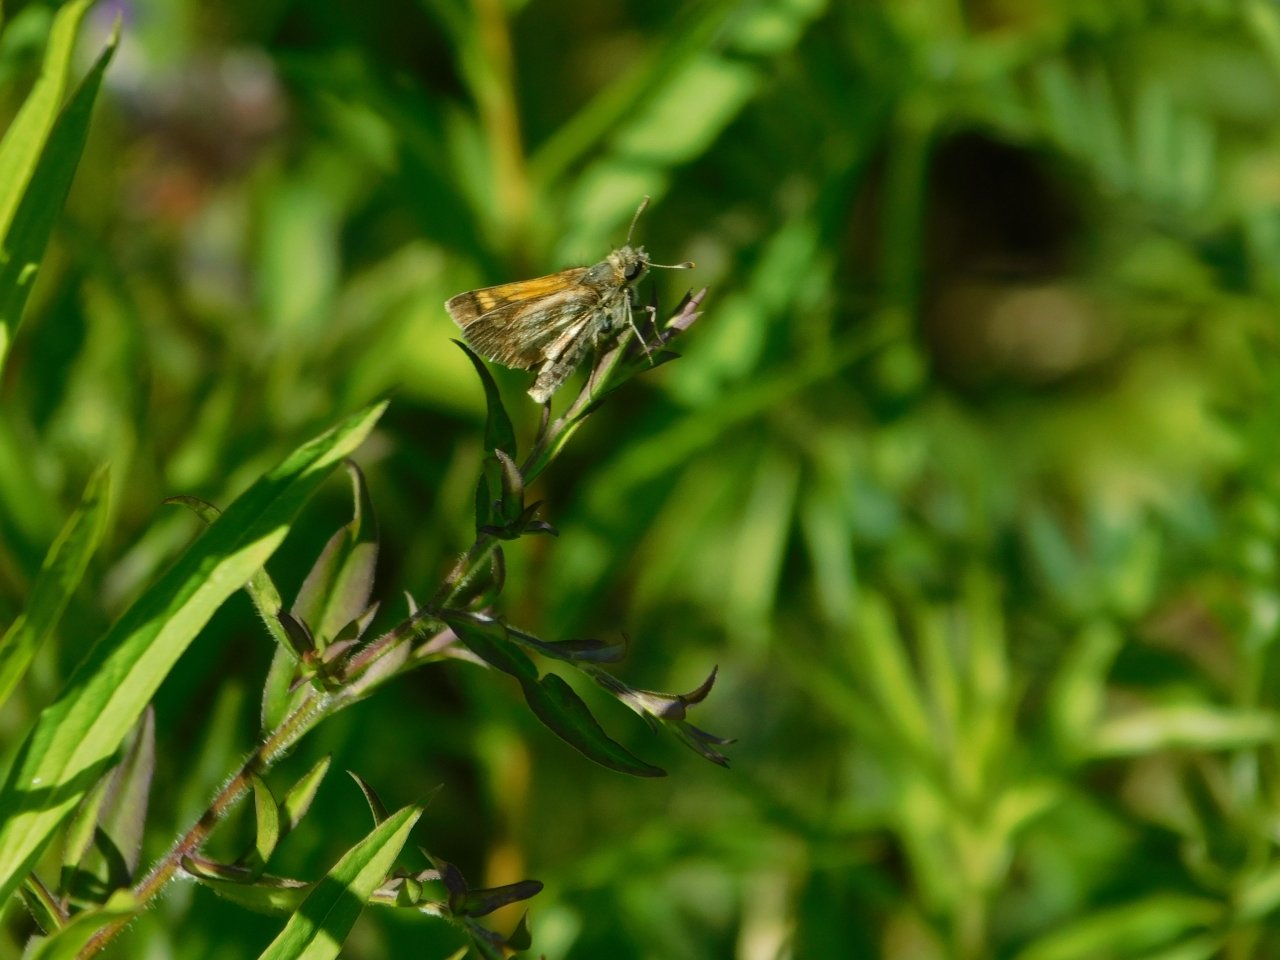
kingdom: Animalia
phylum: Arthropoda
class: Insecta
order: Lepidoptera
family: Hesperiidae
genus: Polites
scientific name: Polites coras
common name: Peck's Skipper
